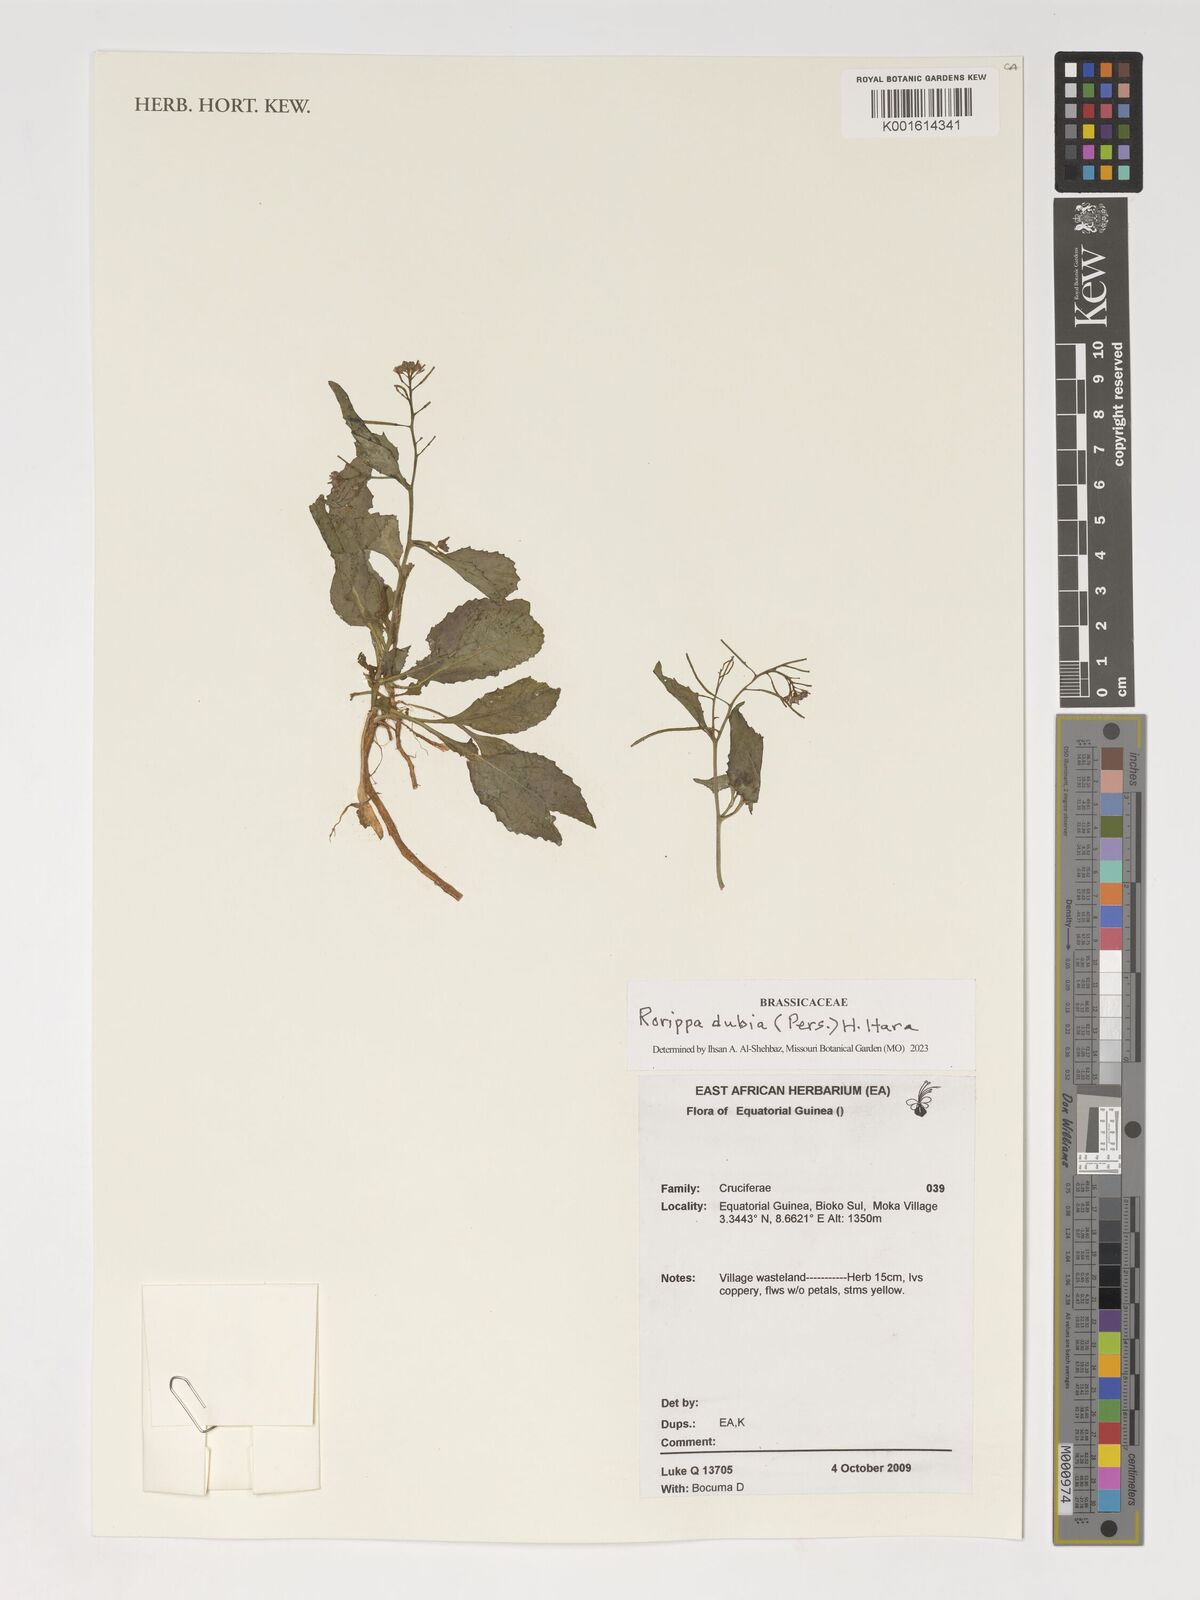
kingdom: Plantae
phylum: Tracheophyta
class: Magnoliopsida
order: Brassicales
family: Brassicaceae
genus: Rorippa
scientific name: Rorippa dubia
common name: Variableleaf yellowcress
